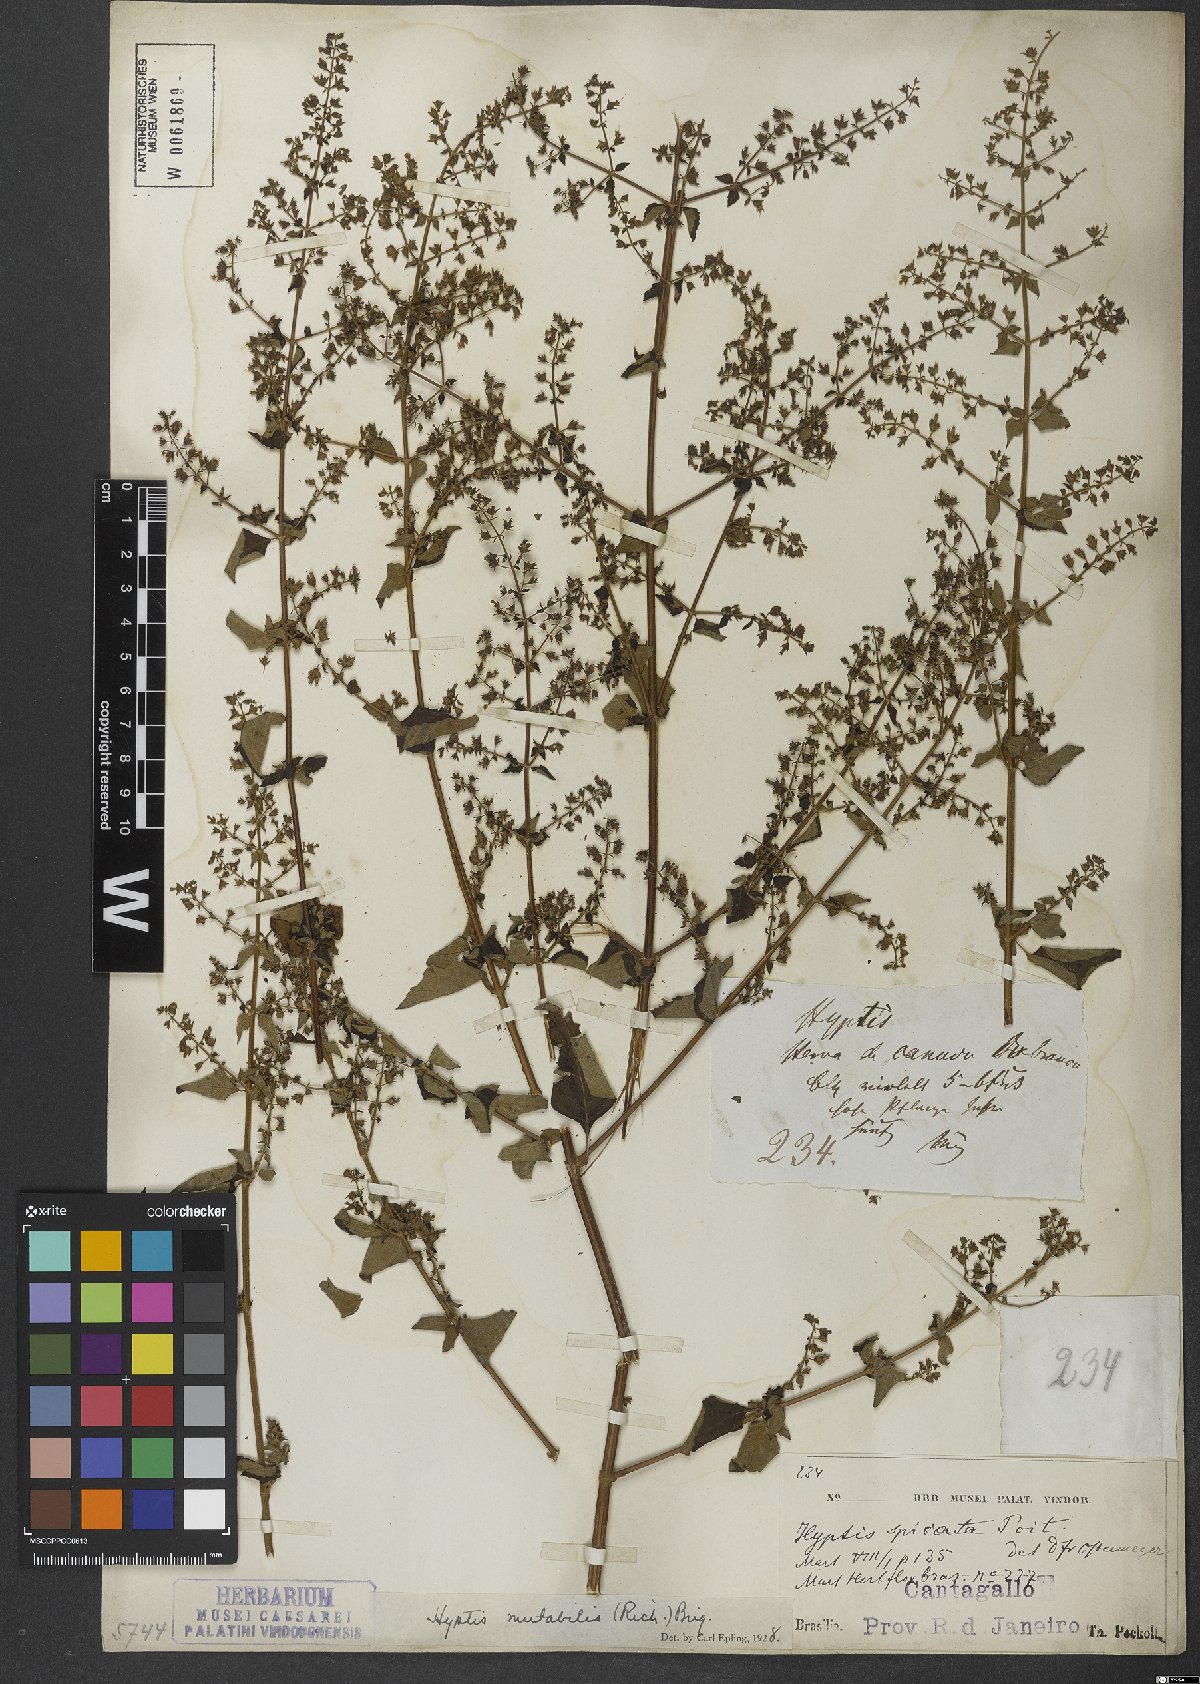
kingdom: Plantae
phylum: Tracheophyta
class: Magnoliopsida
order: Lamiales
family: Lamiaceae
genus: Cantinoa
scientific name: Cantinoa mutabilis
